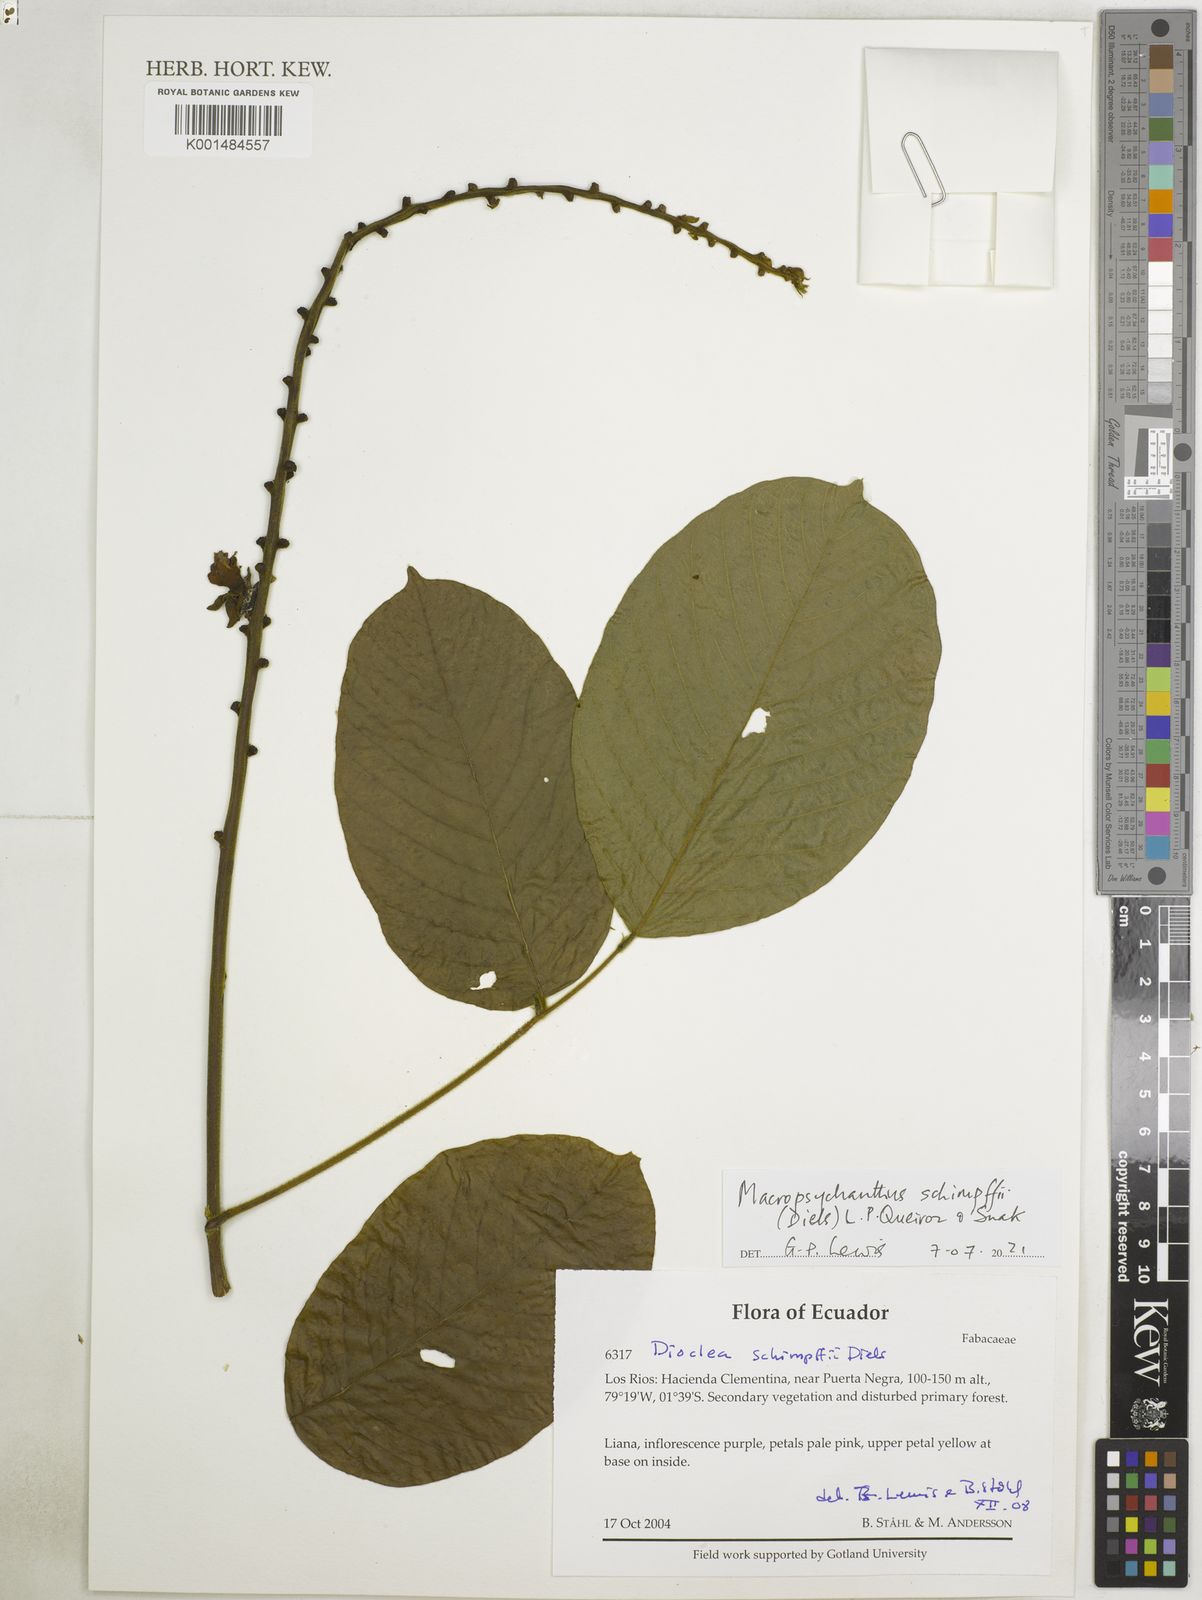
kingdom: Plantae
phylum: Tracheophyta
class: Magnoliopsida
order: Fabales
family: Fabaceae
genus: Macropsychanthus
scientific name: Macropsychanthus
